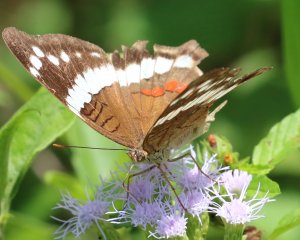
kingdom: Animalia
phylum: Arthropoda
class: Insecta
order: Lepidoptera
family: Nymphalidae
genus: Anartia
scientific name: Anartia fatima
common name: Banded Peacock
